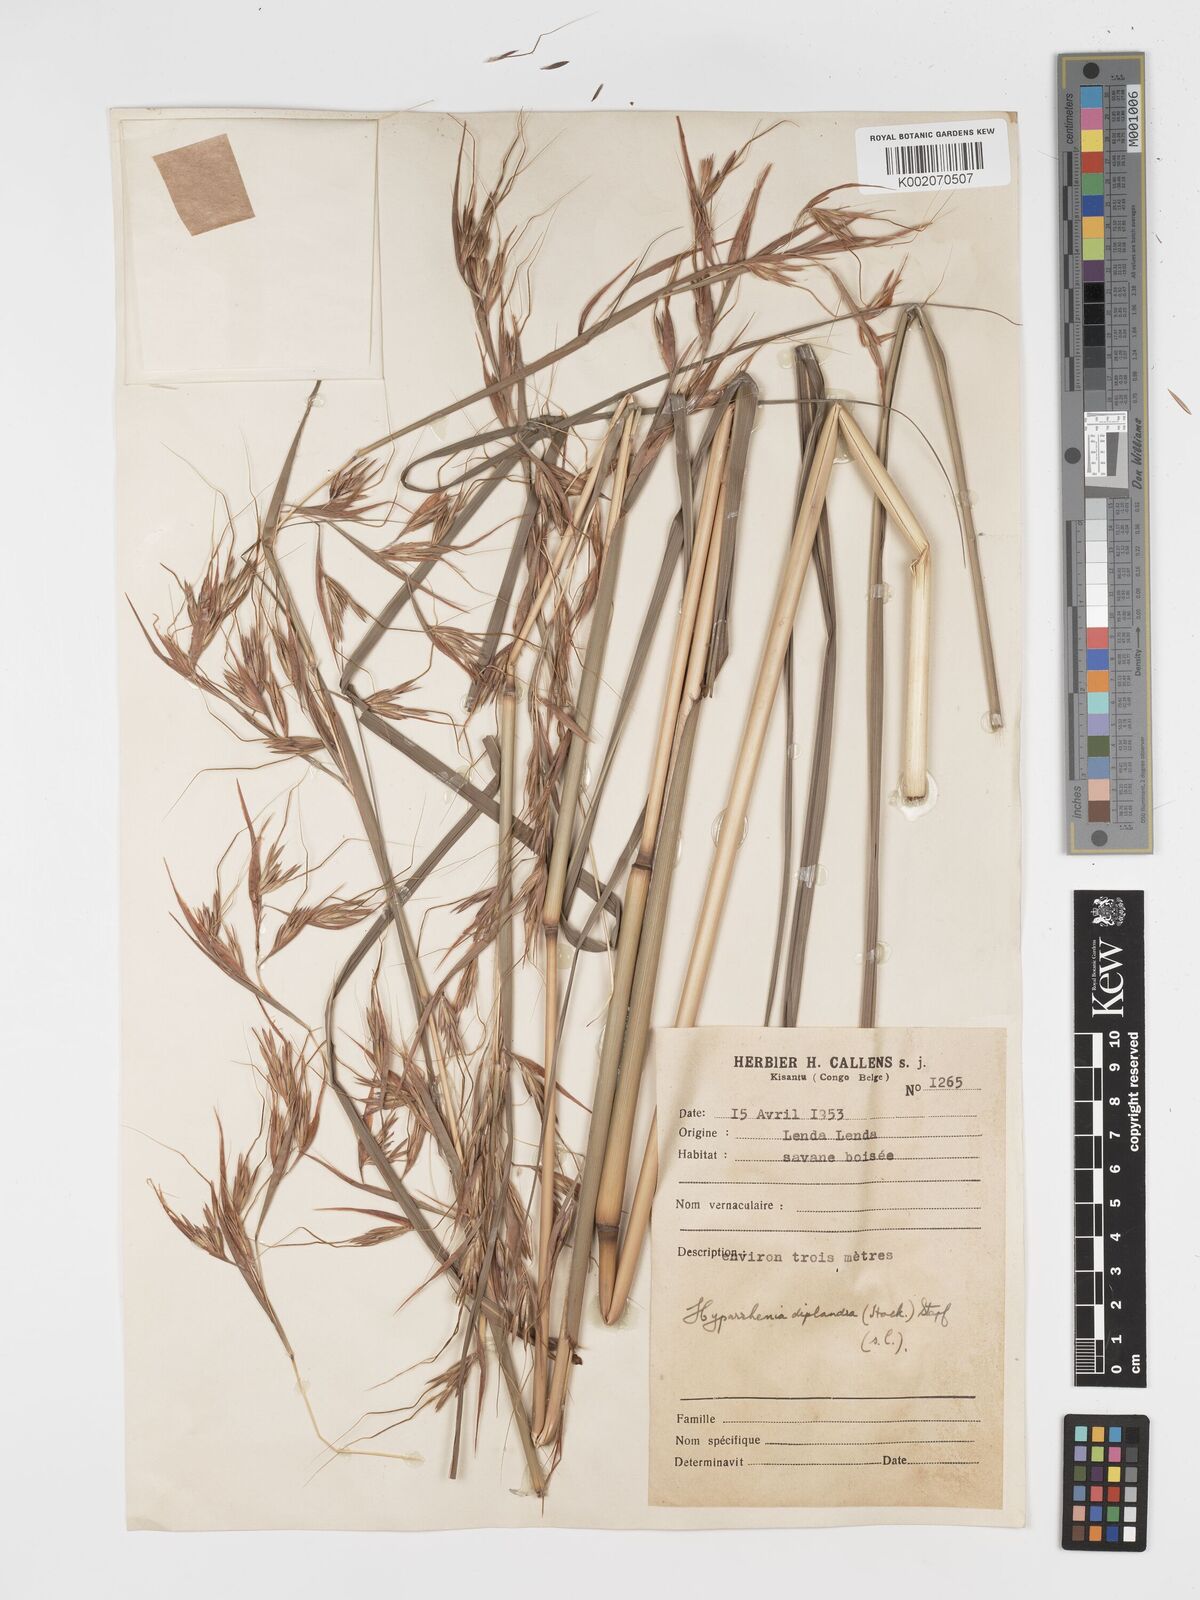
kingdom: Plantae
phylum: Tracheophyta
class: Liliopsida
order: Poales
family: Poaceae
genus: Hyparrhenia
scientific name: Hyparrhenia diplandra
